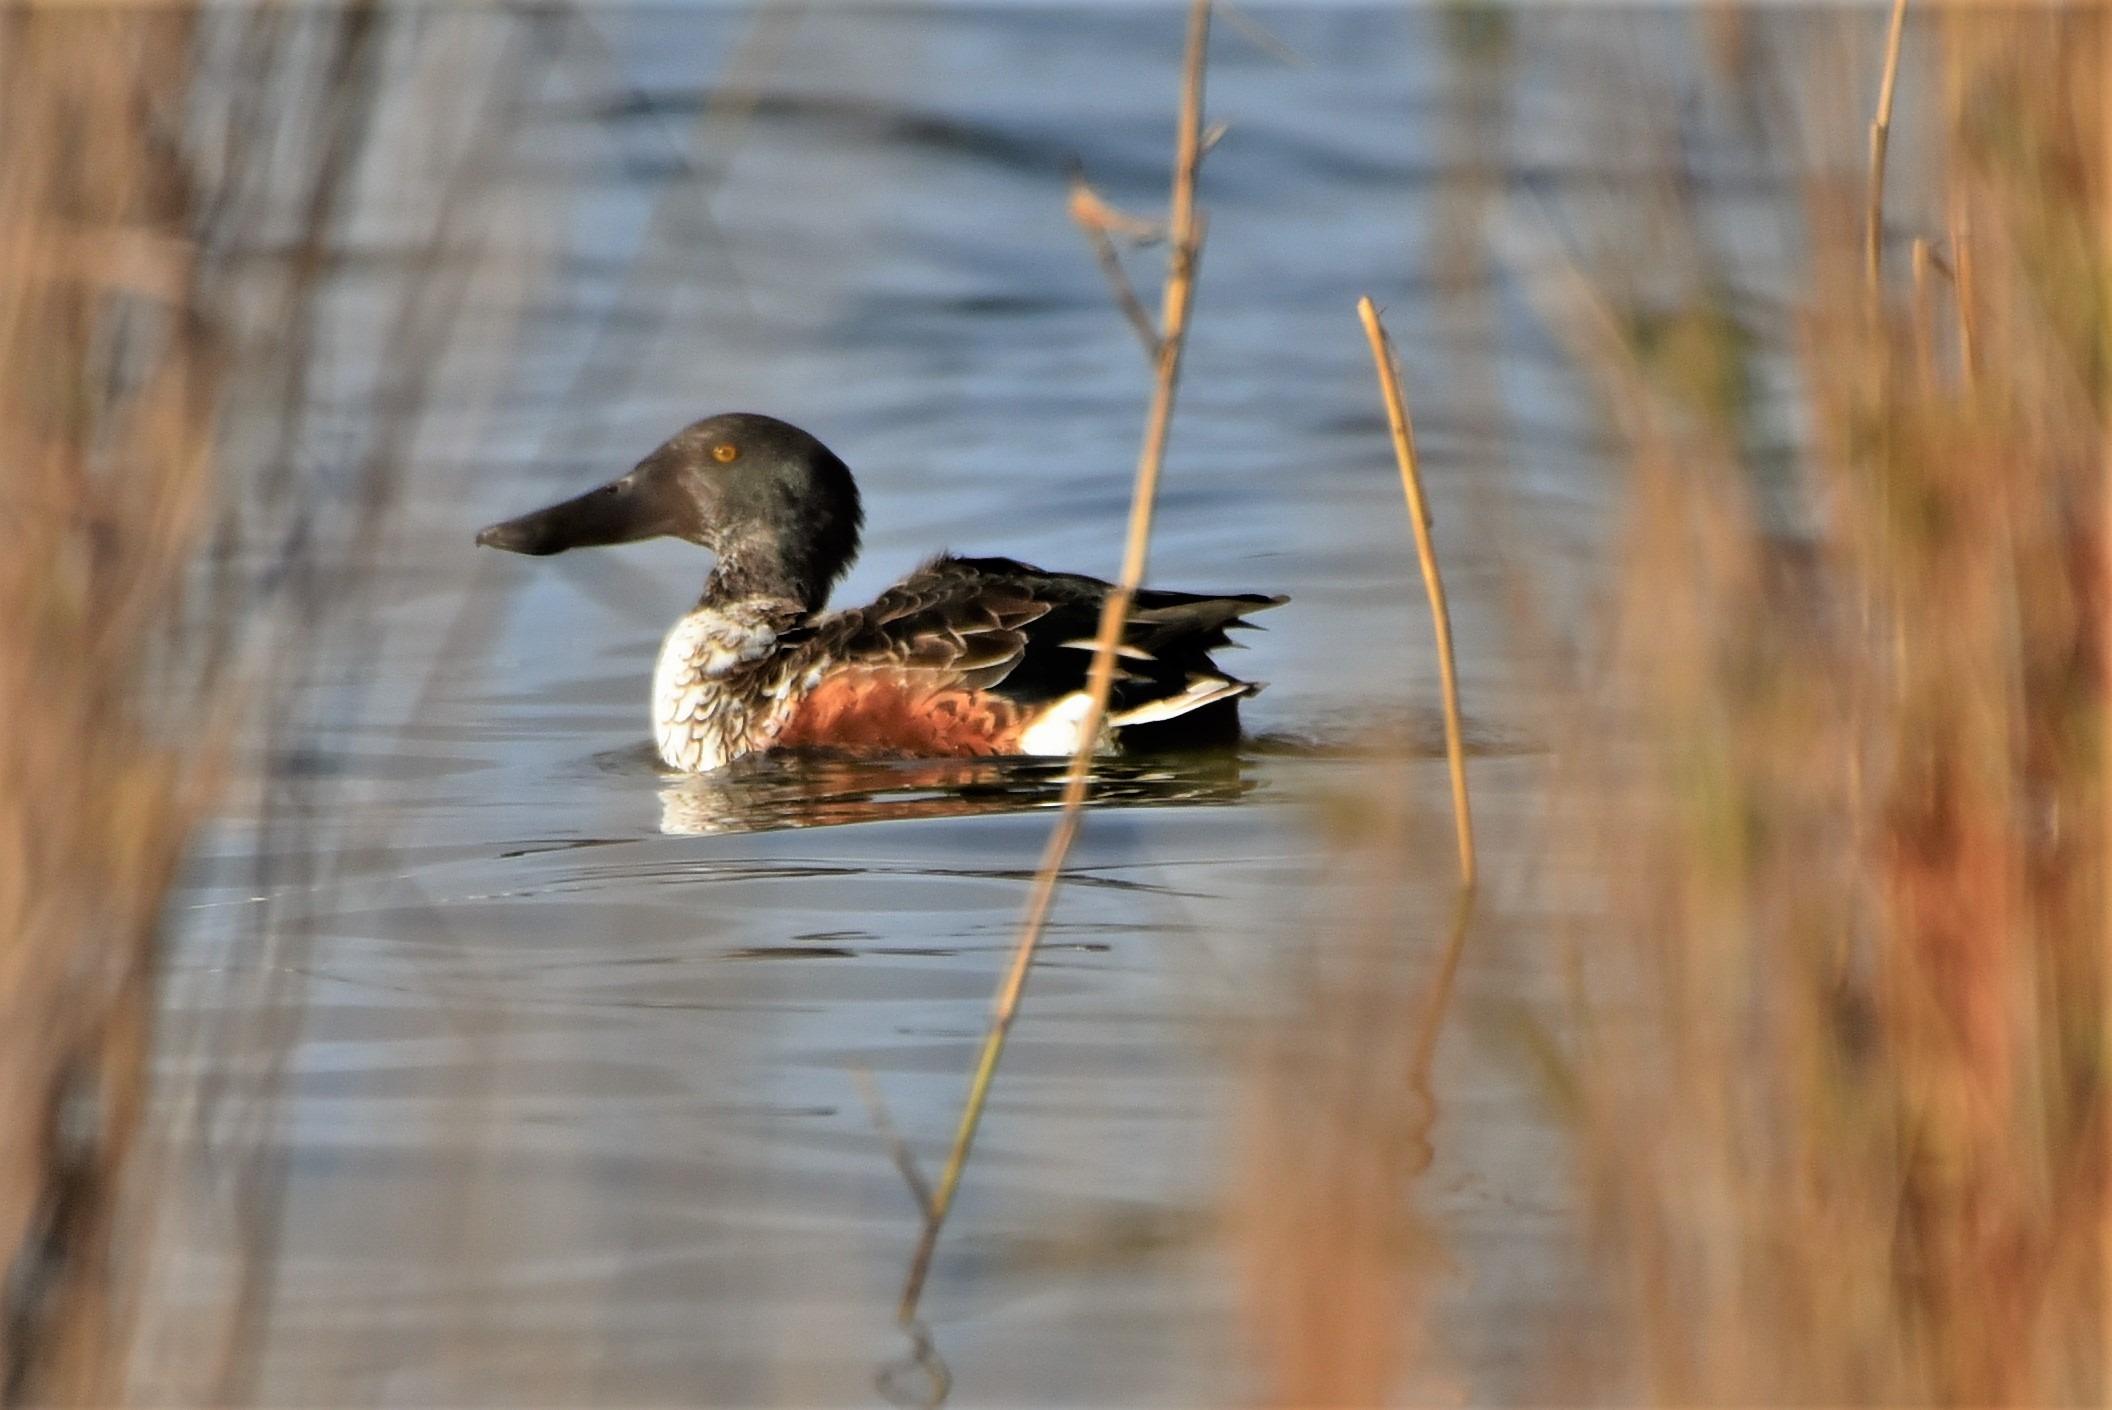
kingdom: Animalia
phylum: Chordata
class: Aves
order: Anseriformes
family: Anatidae
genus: Spatula
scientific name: Spatula clypeata
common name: Skeand
